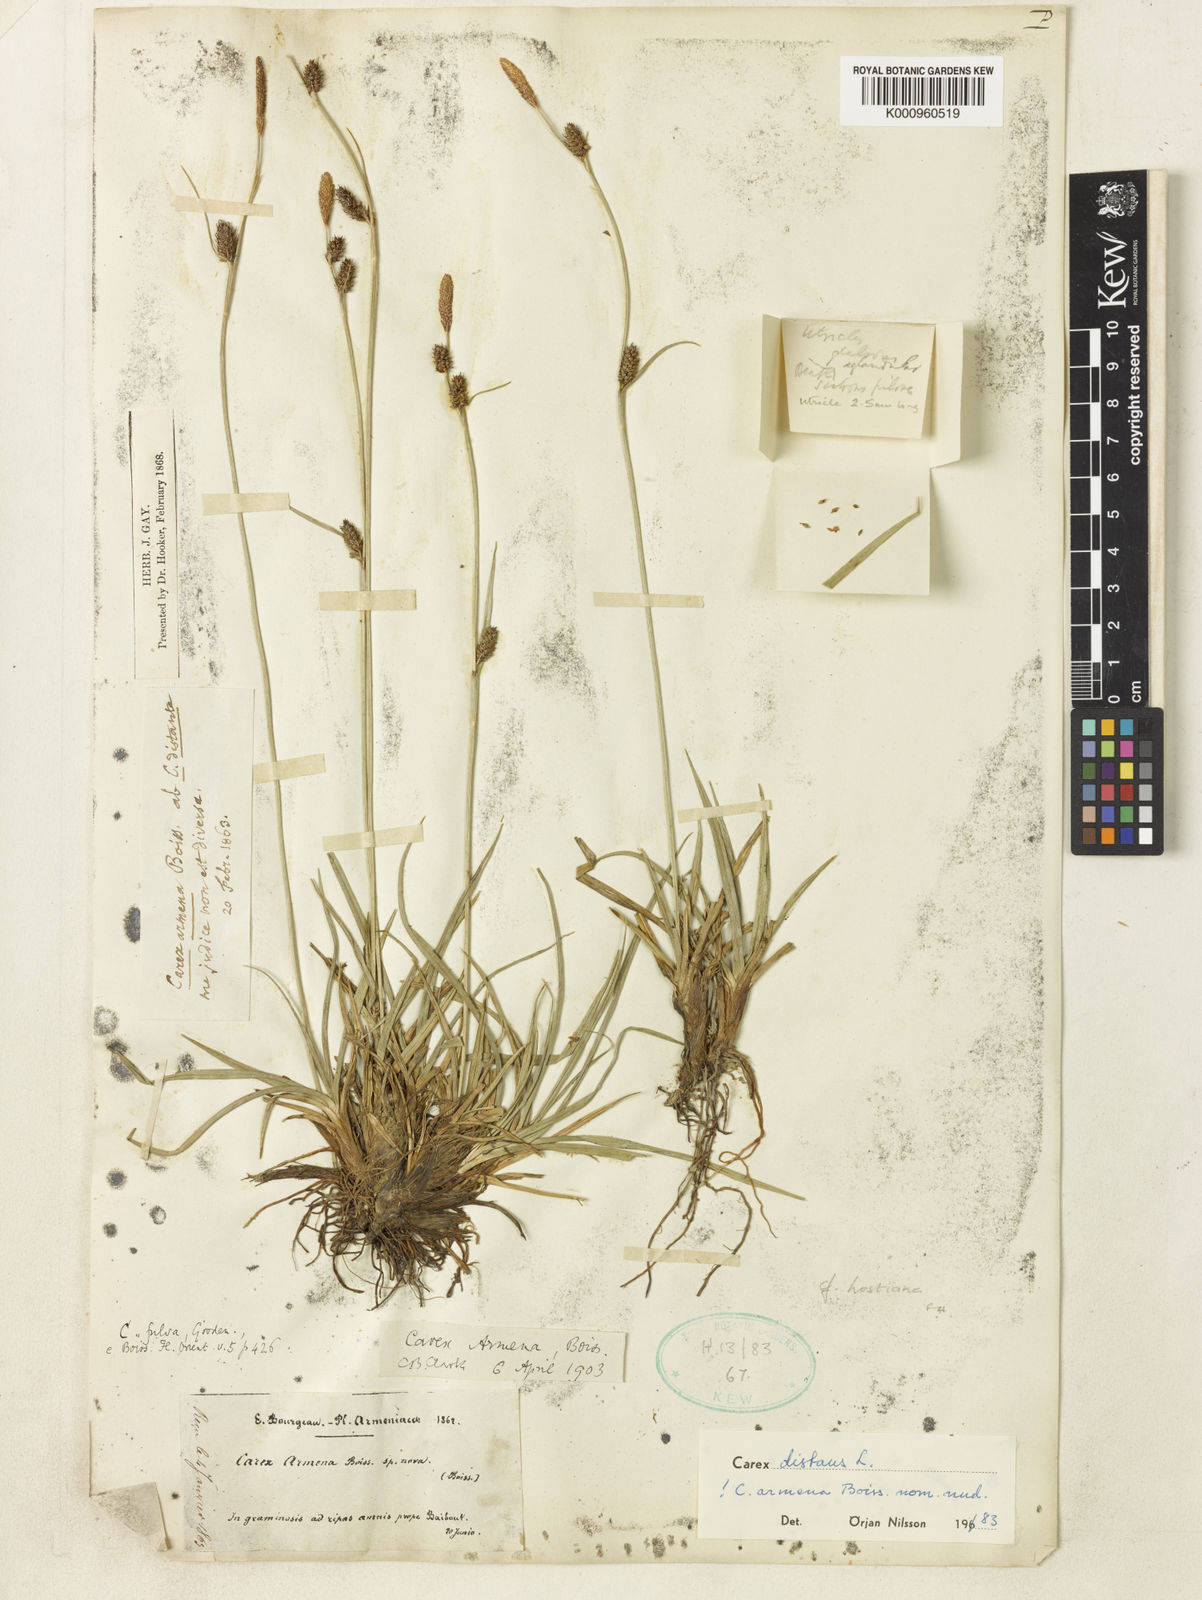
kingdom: Plantae
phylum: Tracheophyta
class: Liliopsida
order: Poales
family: Cyperaceae
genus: Carex
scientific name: Carex distans
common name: Distant sedge
